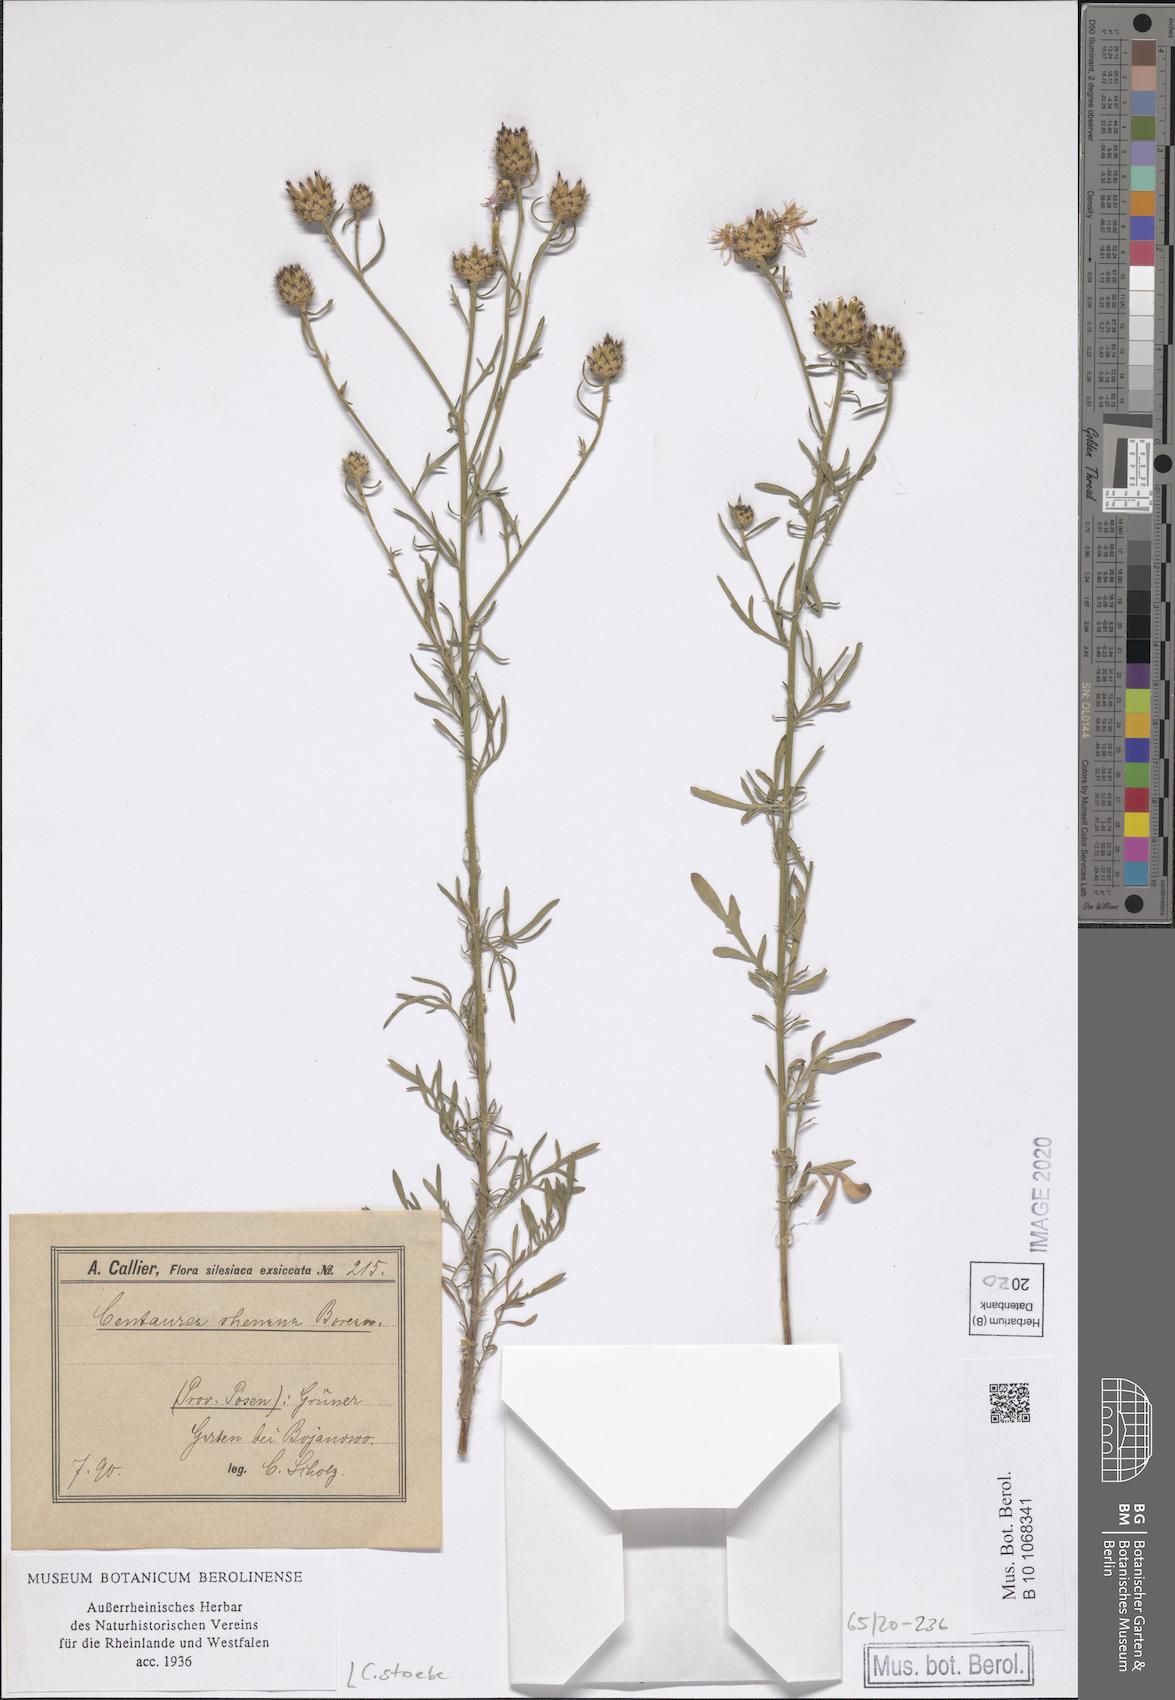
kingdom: Plantae
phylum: Tracheophyta
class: Magnoliopsida
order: Asterales
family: Asteraceae
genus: Centaurea
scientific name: Centaurea stoebe
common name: Spotted knapweed
